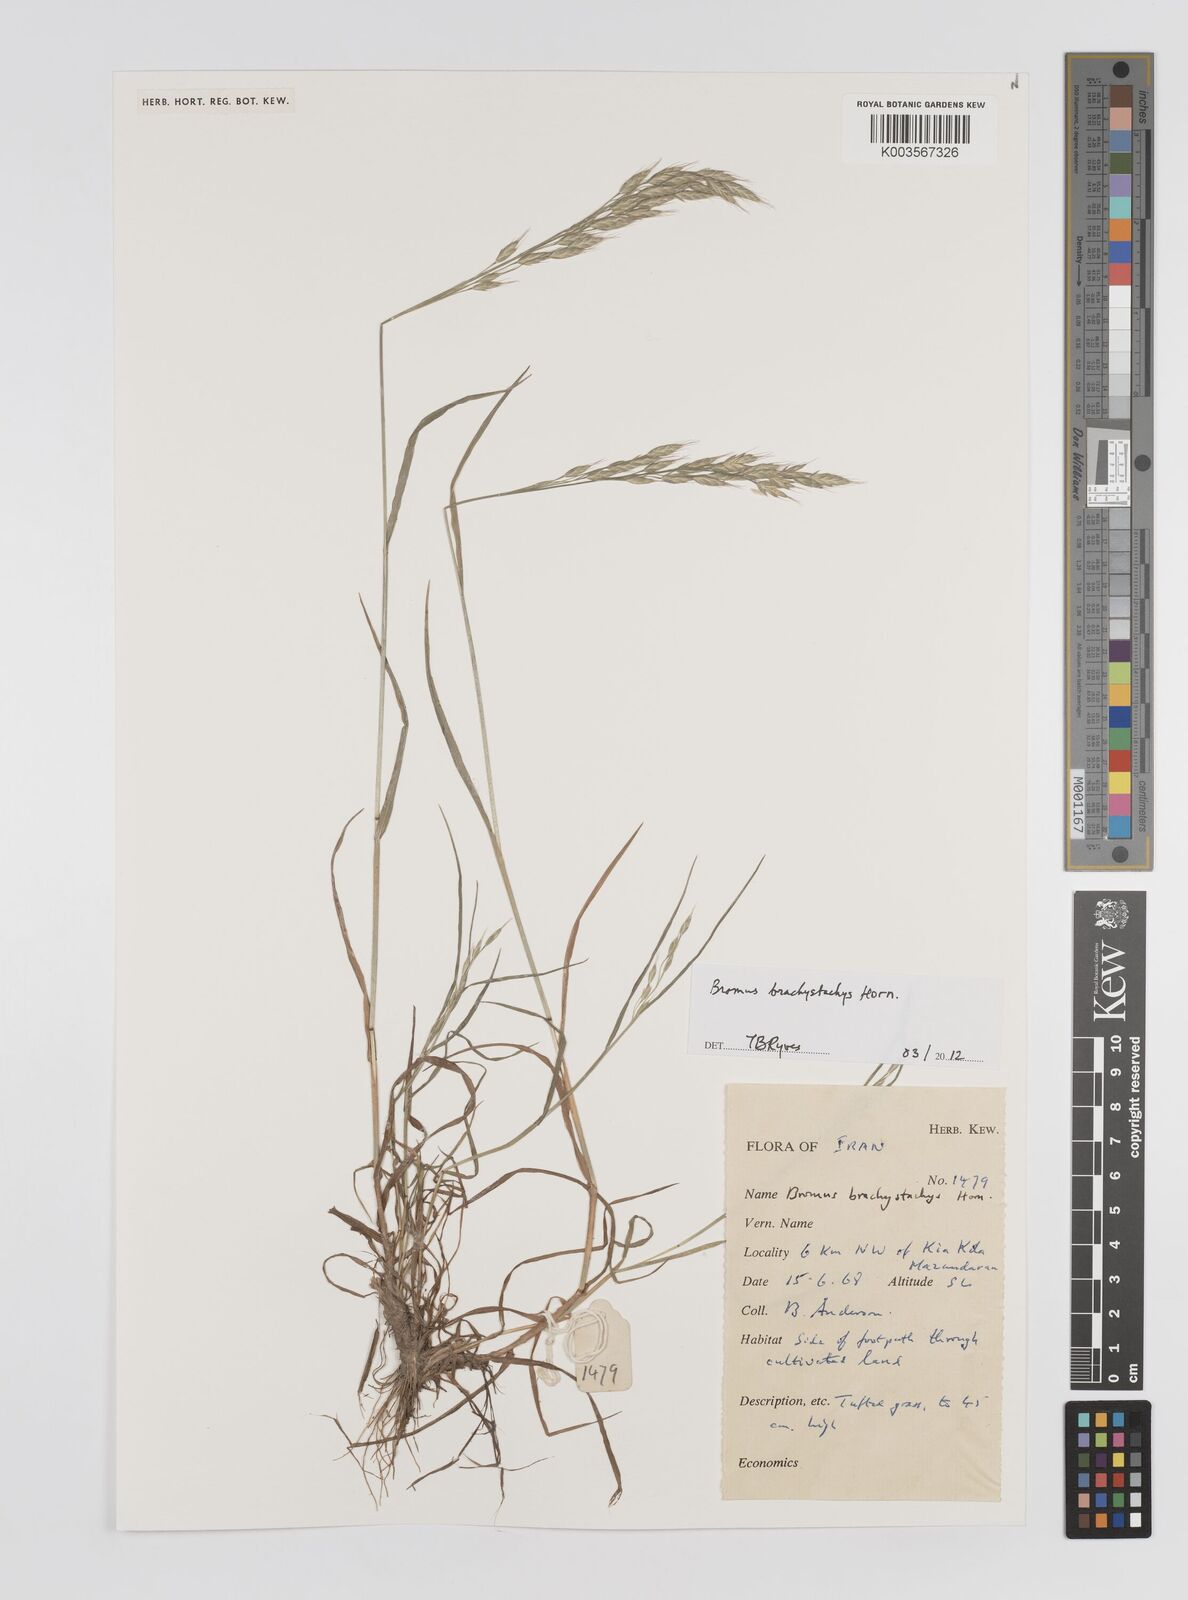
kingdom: Plantae
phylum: Tracheophyta
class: Liliopsida
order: Poales
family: Poaceae
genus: Bromus
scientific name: Bromus pseudobrachystachys
